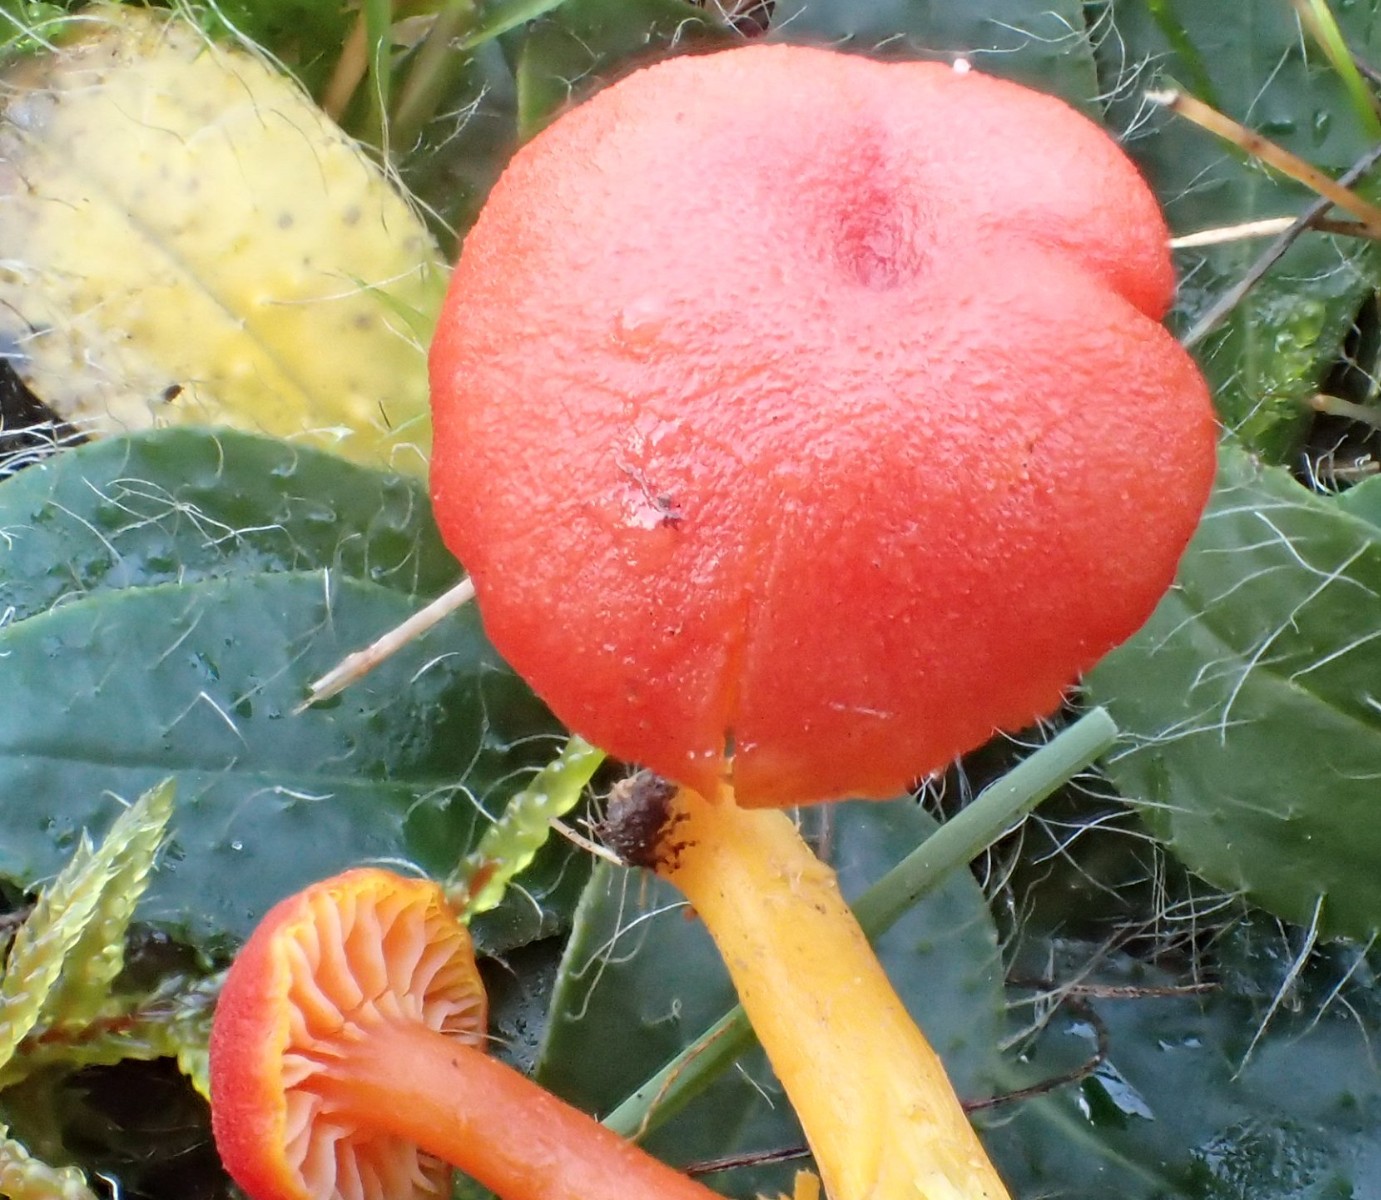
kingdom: Fungi
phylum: Basidiomycota
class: Agaricomycetes
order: Agaricales
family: Hygrophoraceae
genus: Hygrocybe
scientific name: Hygrocybe miniata
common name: mønje-vokshat
